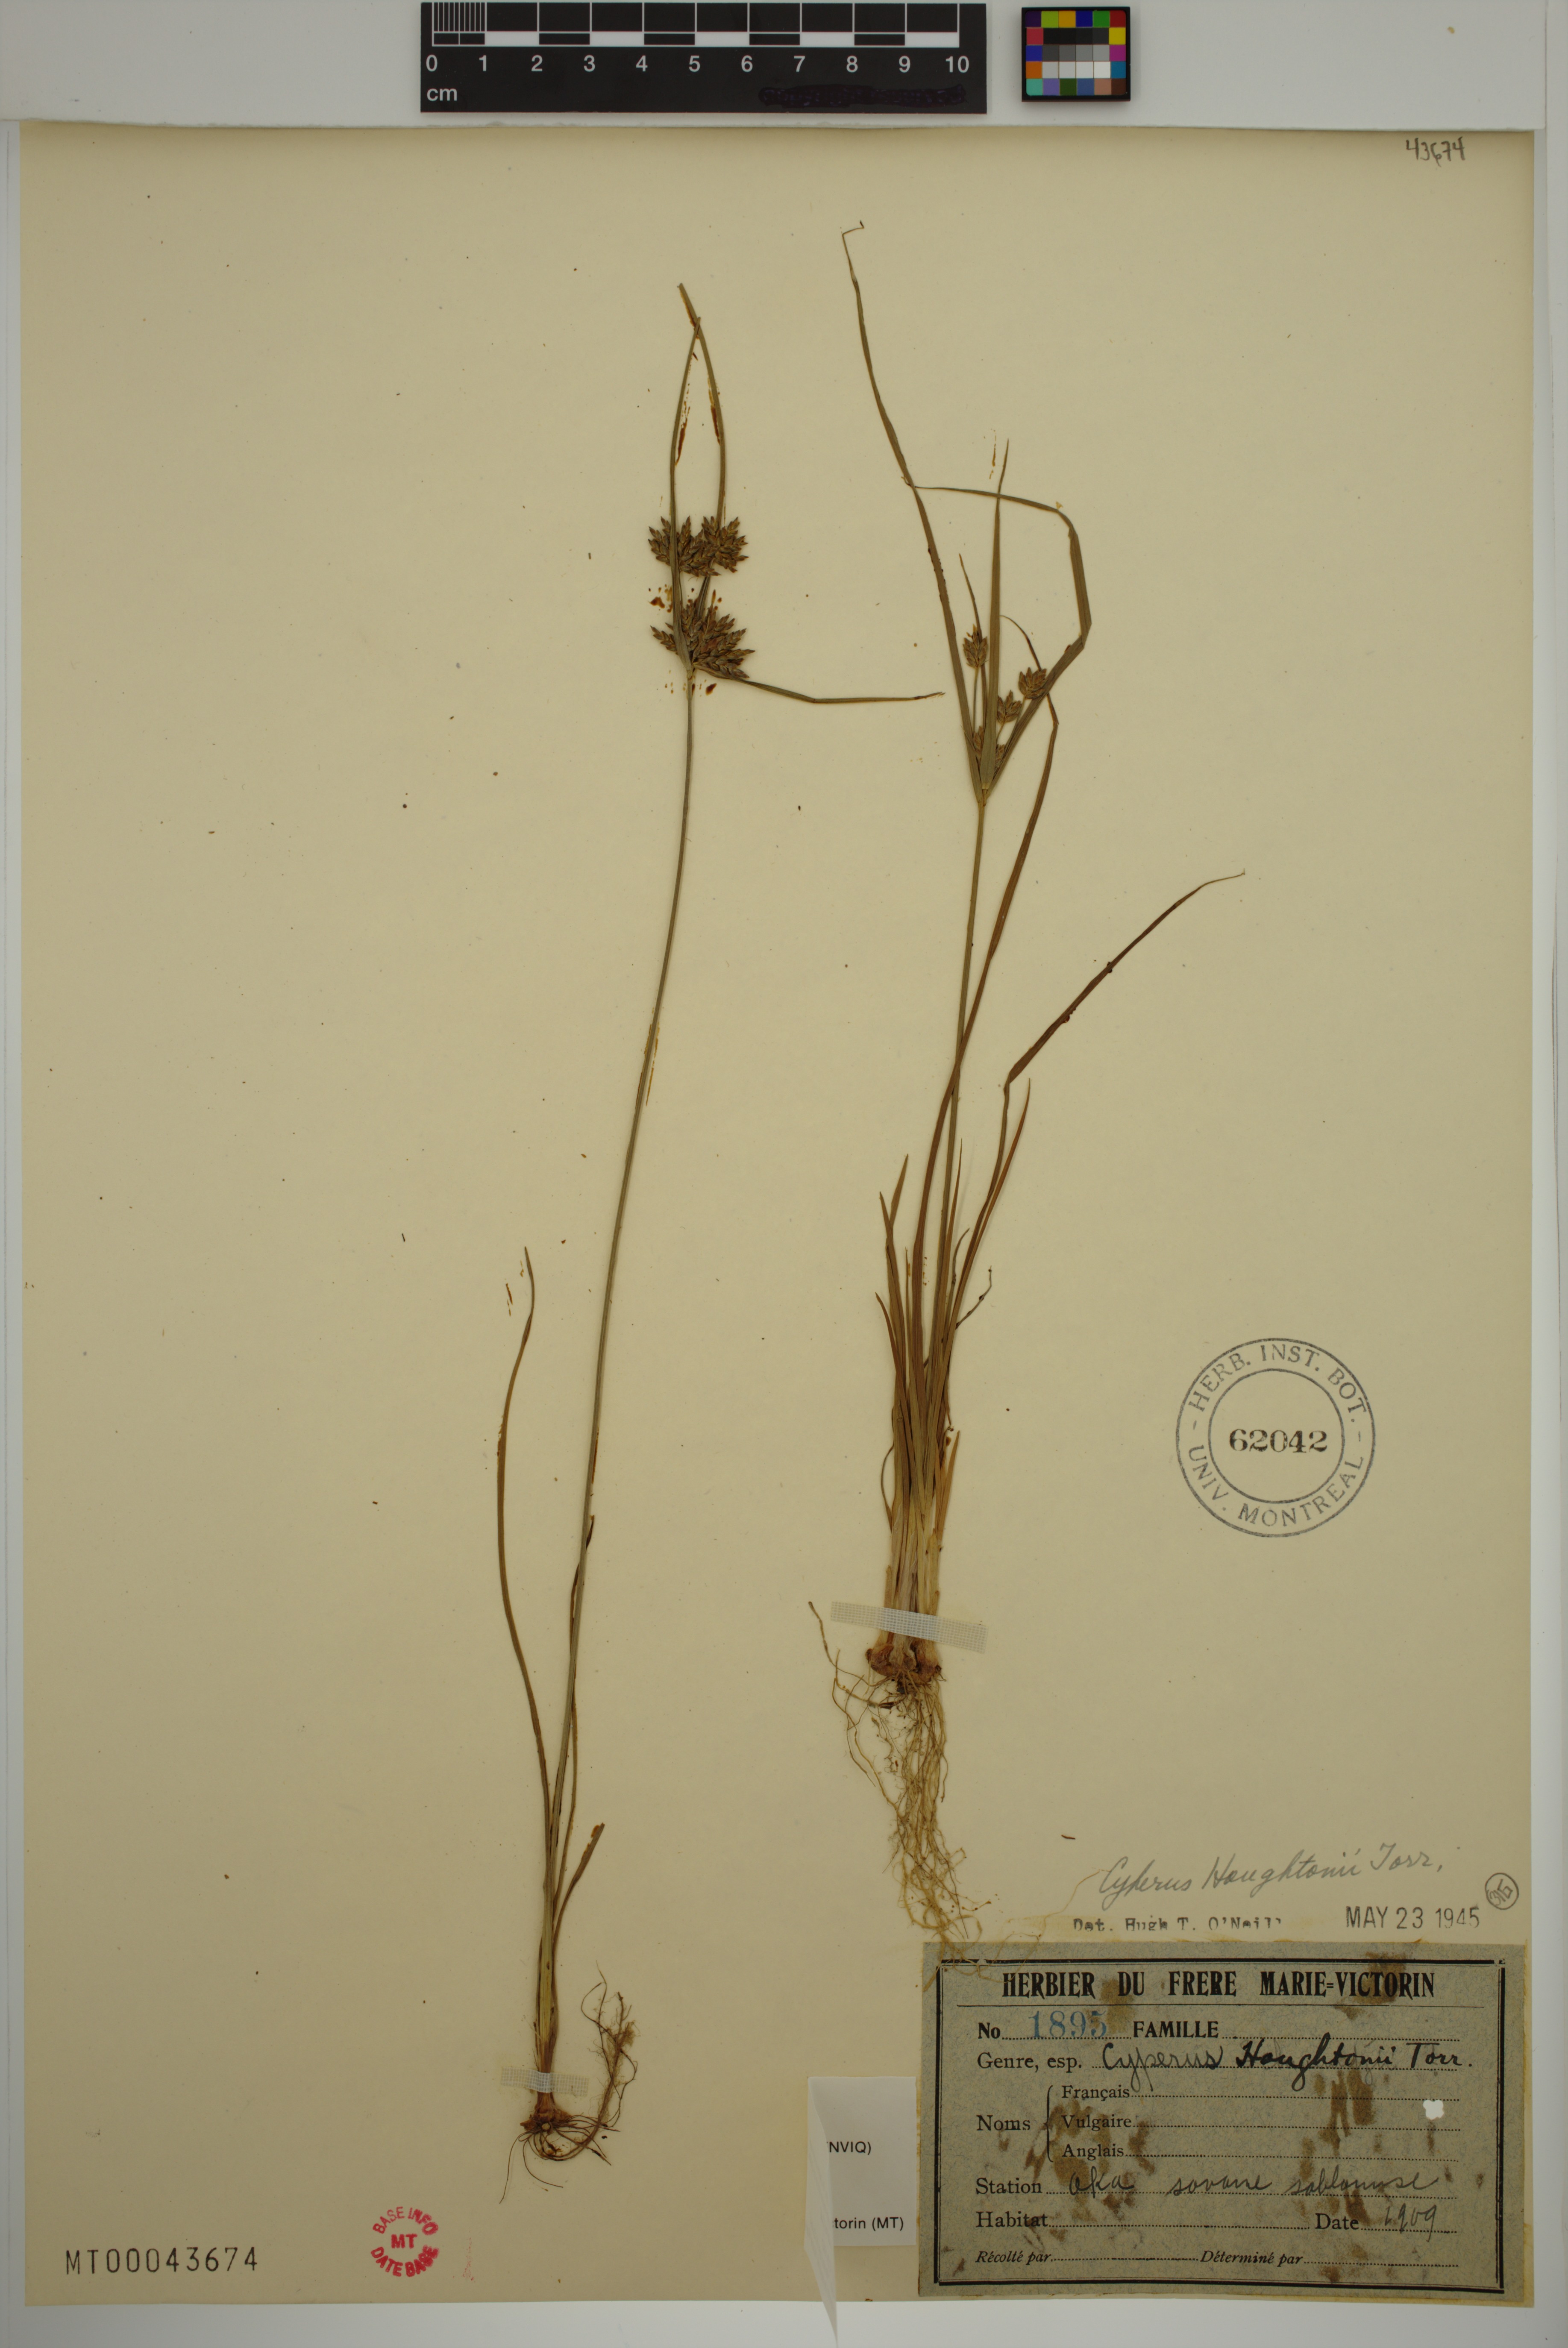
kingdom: Plantae
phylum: Tracheophyta
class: Liliopsida
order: Poales
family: Cyperaceae
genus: Cyperus
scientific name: Cyperus houghtonii
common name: Houghton's cyperus
